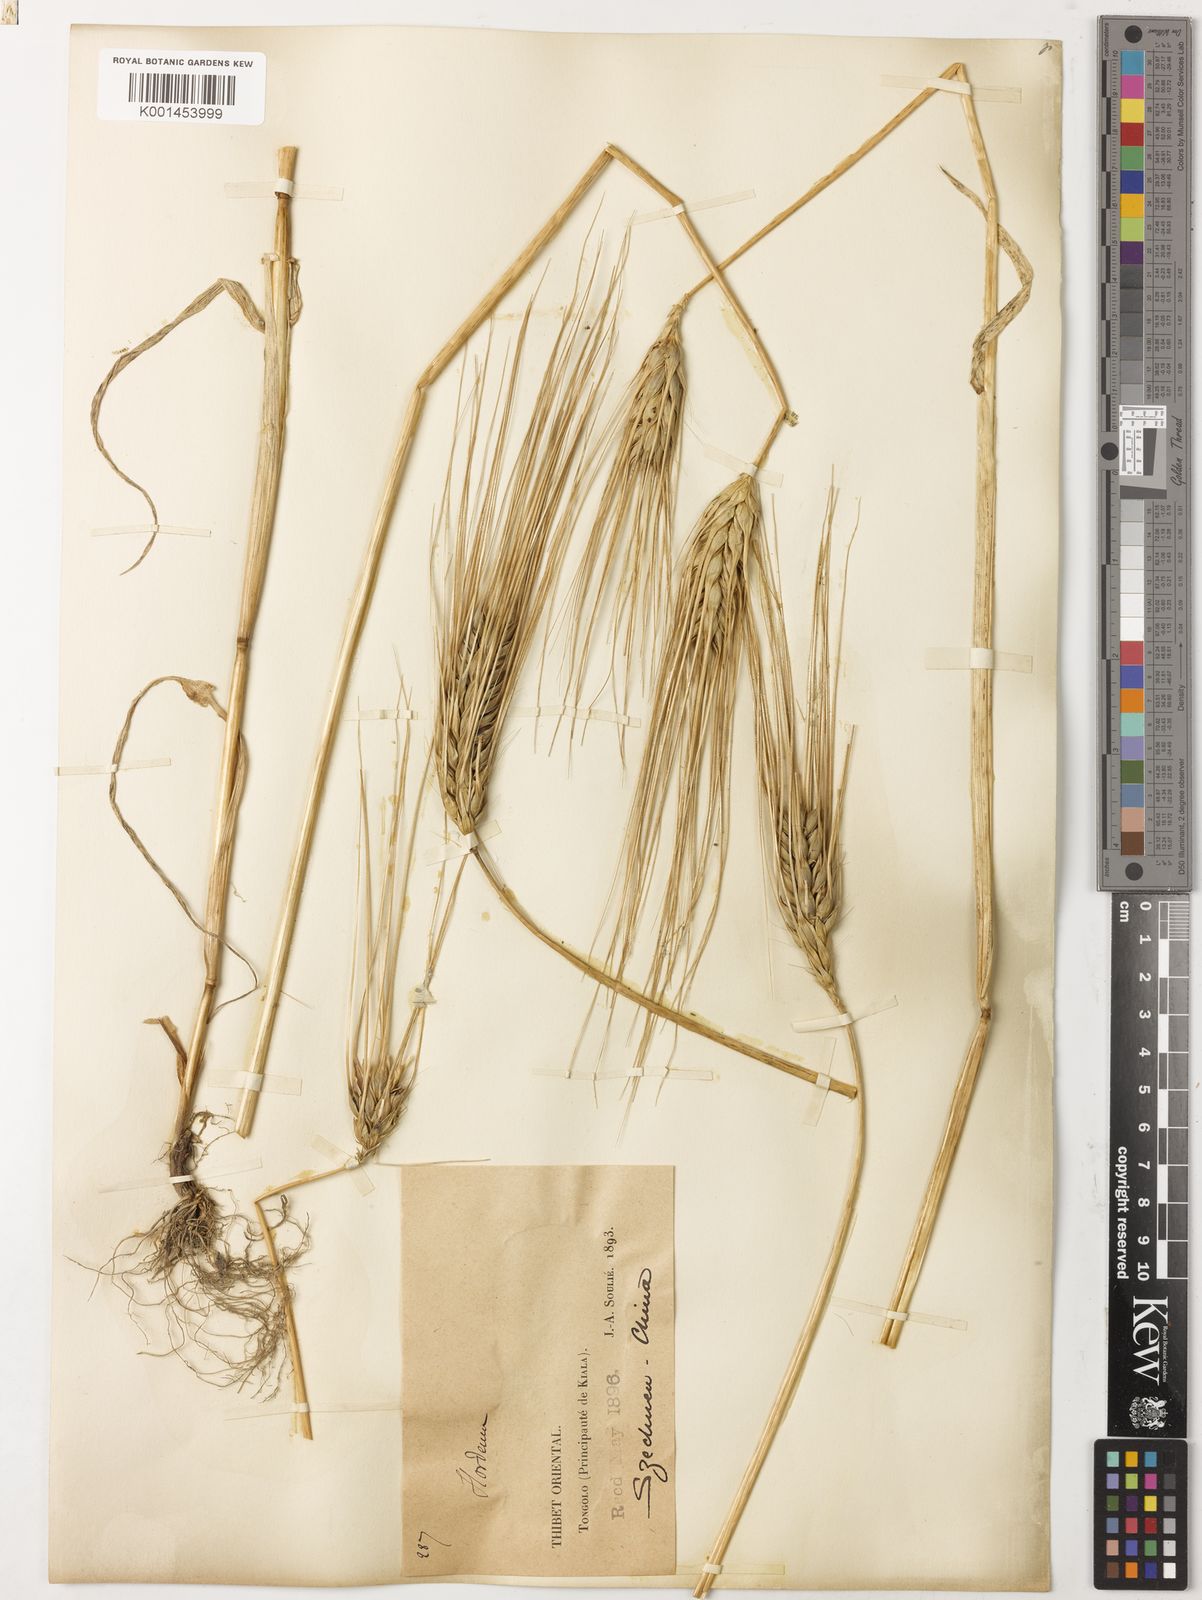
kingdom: Plantae
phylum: Tracheophyta
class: Liliopsida
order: Poales
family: Poaceae
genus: Hordeum
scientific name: Hordeum vulgare
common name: Common barley
